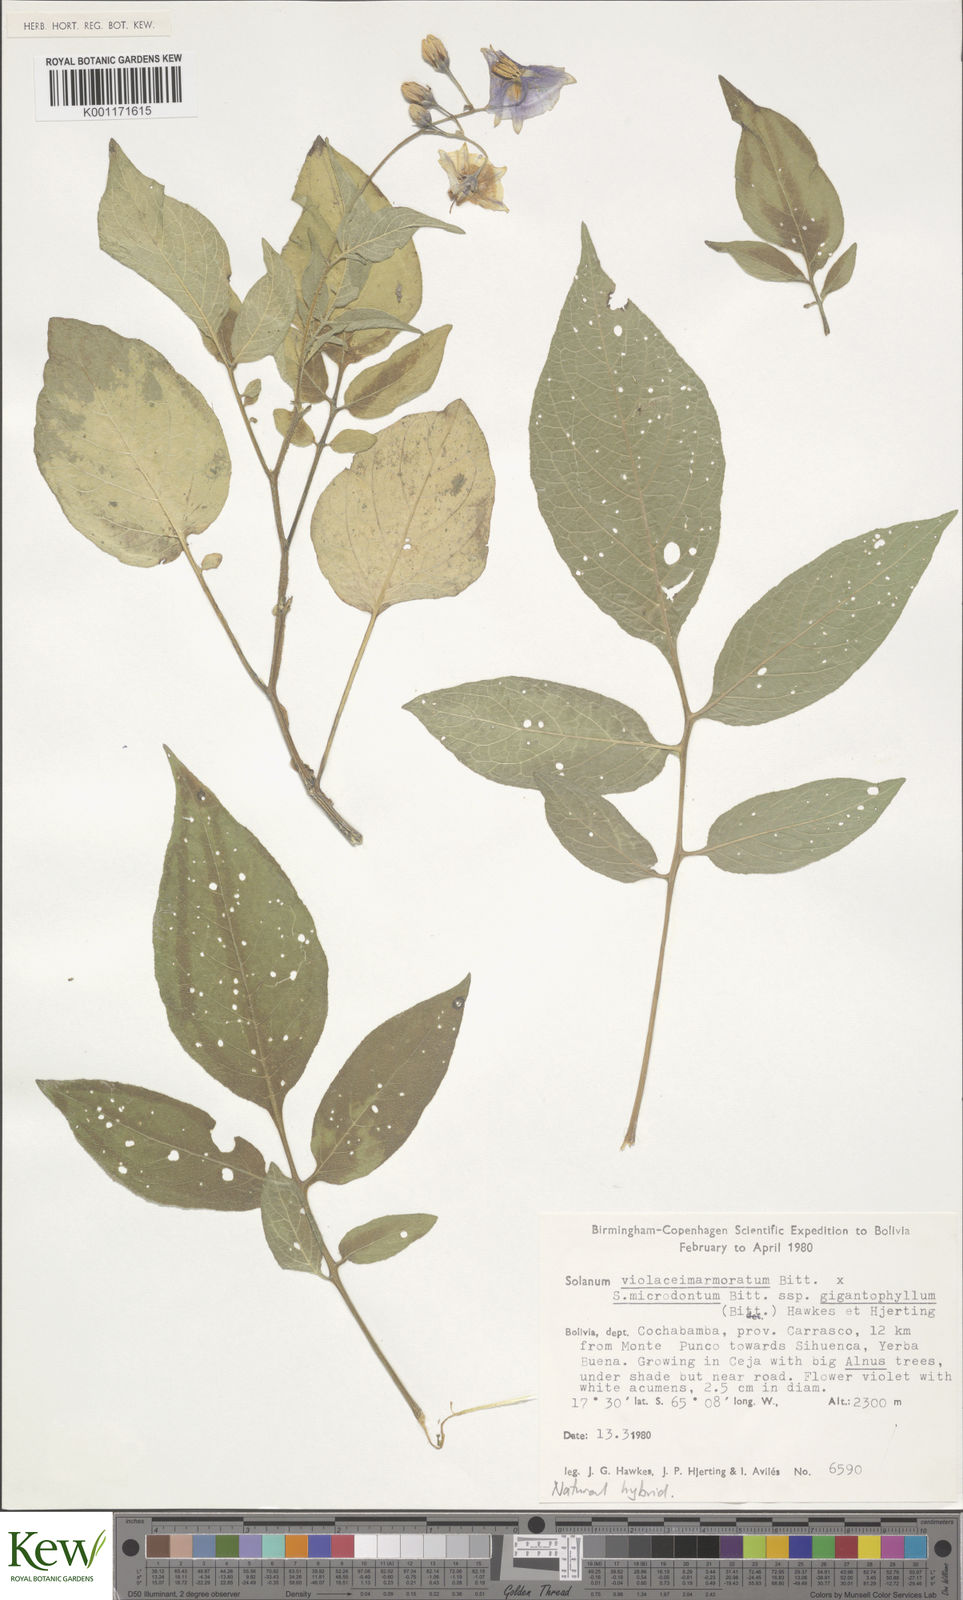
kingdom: Plantae
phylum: Tracheophyta
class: Magnoliopsida
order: Solanales
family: Solanaceae
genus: Solanum
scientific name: Solanum violaceimarmoratum
